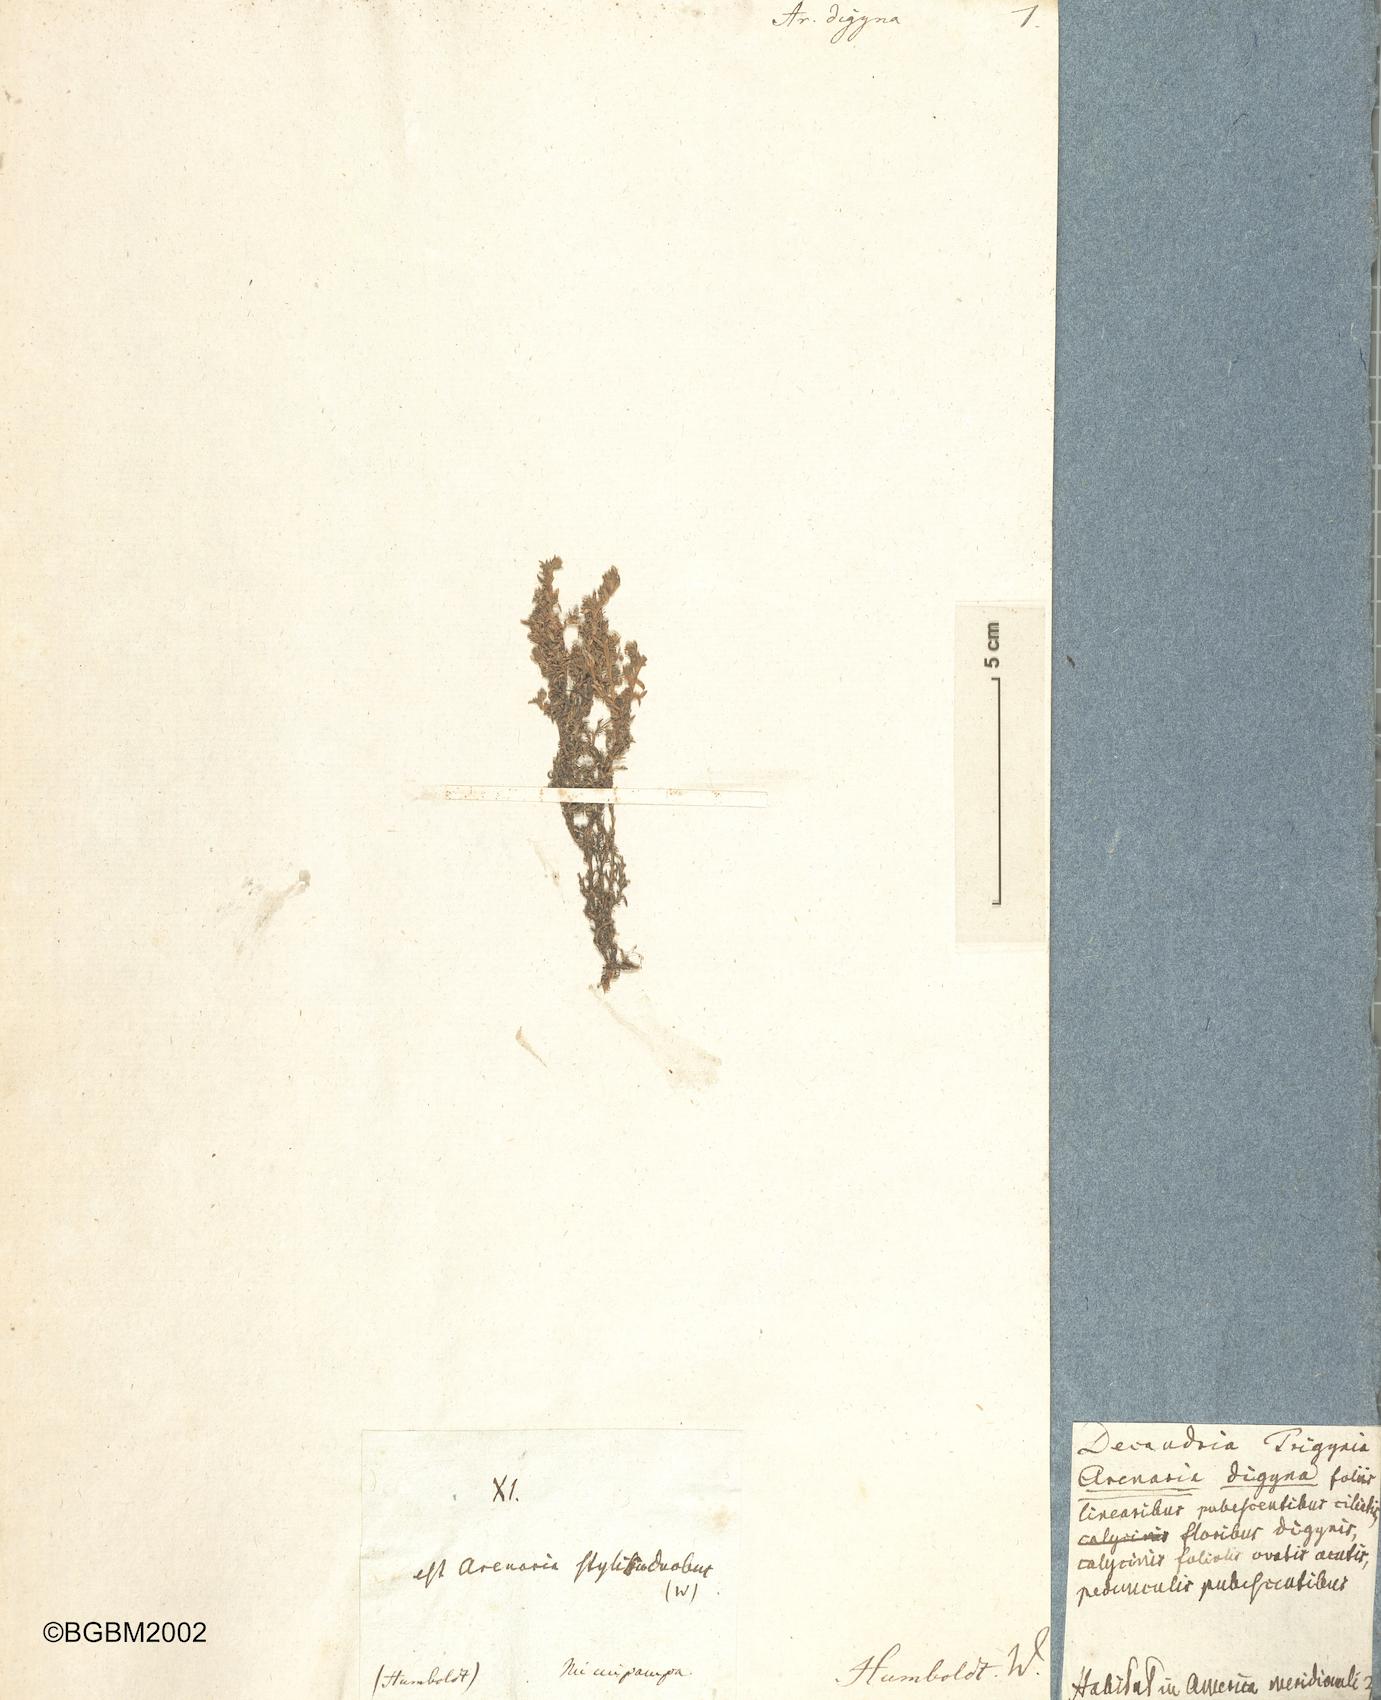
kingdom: Plantae
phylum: Tracheophyta
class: Magnoliopsida
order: Caryophyllales
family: Caryophyllaceae
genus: Arenaria
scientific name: Arenaria digyna
